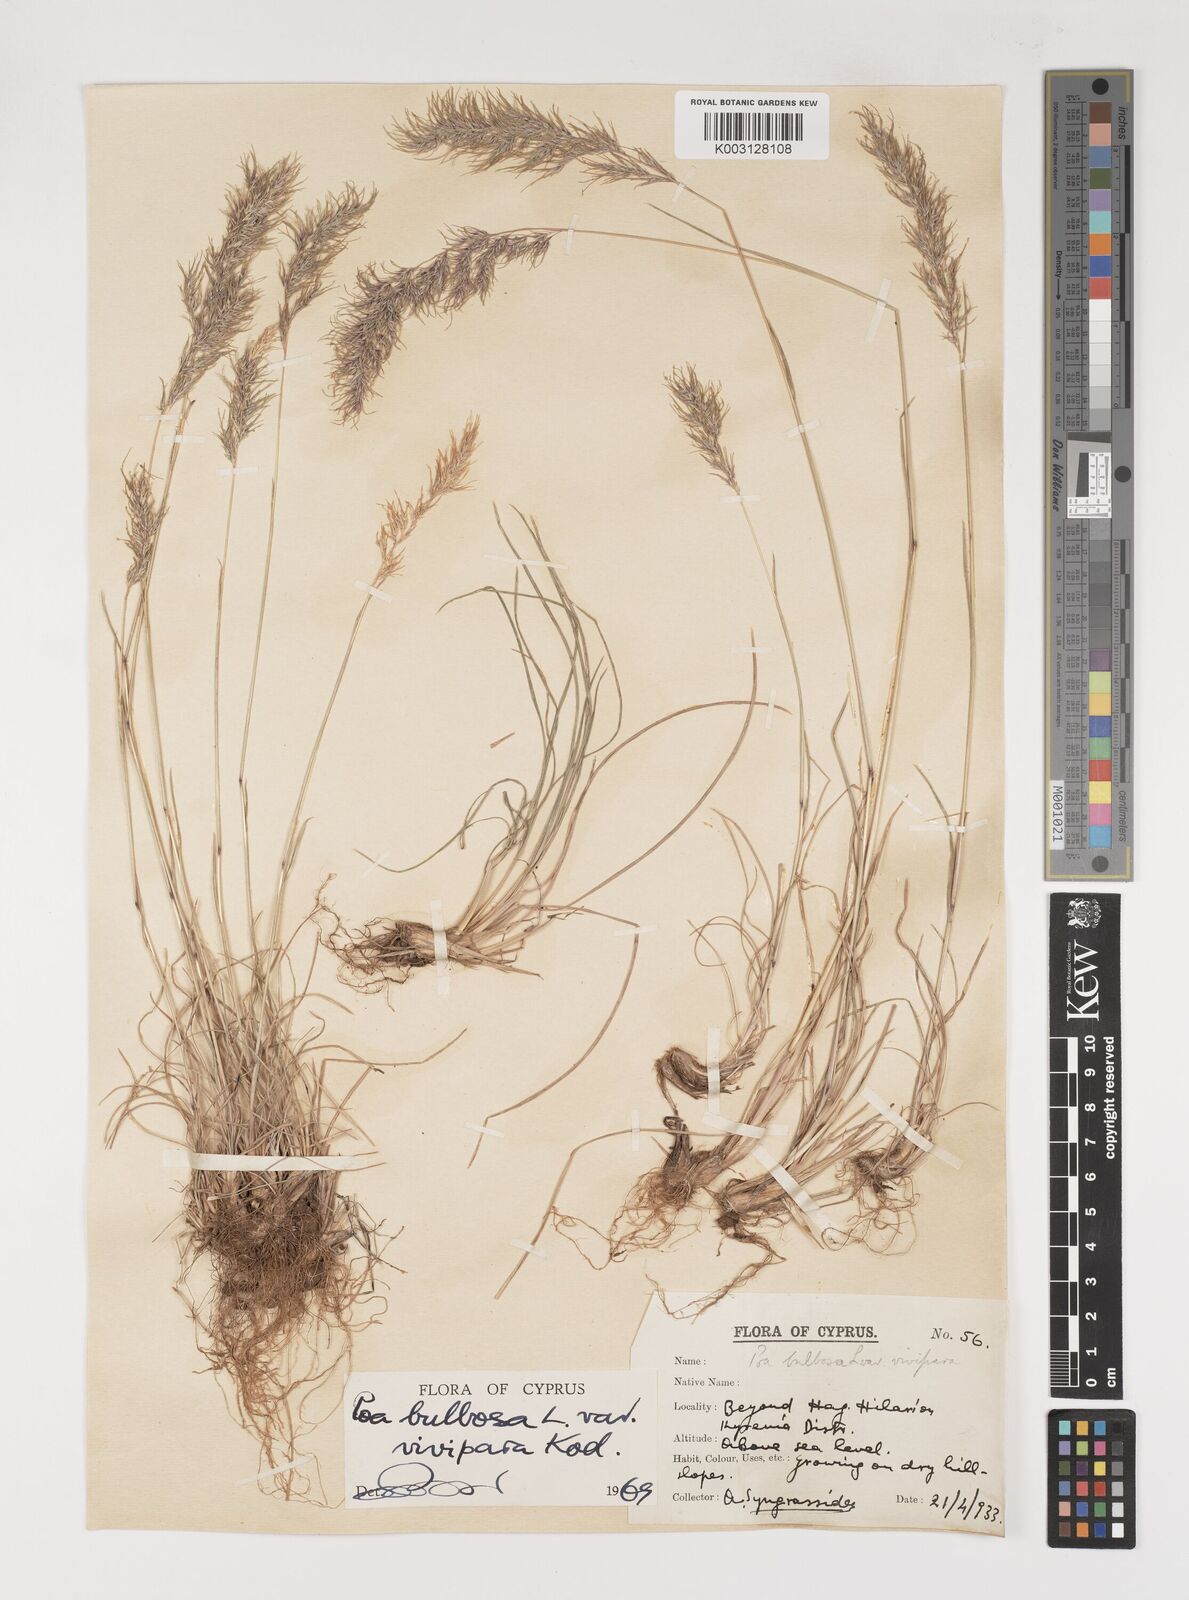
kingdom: Plantae
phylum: Tracheophyta
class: Liliopsida
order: Poales
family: Poaceae
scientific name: Poaceae
